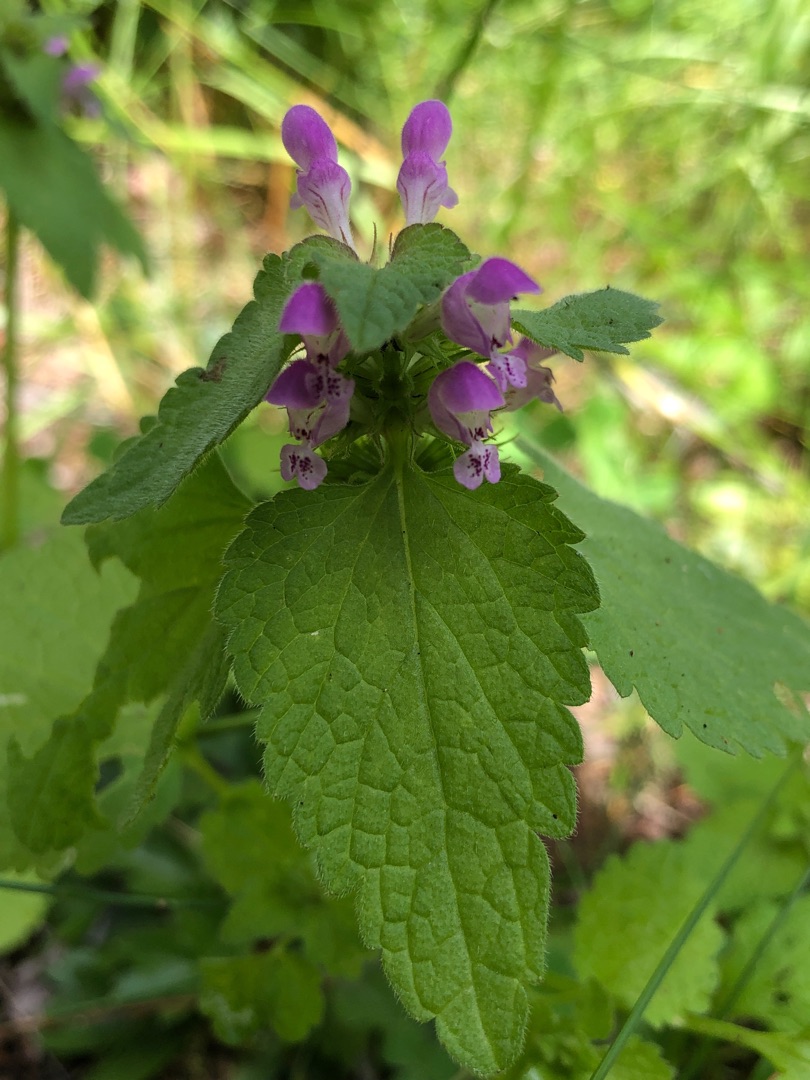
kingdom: Plantae
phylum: Tracheophyta
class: Magnoliopsida
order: Lamiales
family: Lamiaceae
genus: Lamium
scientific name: Lamium purpureum
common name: Rød tvetand
